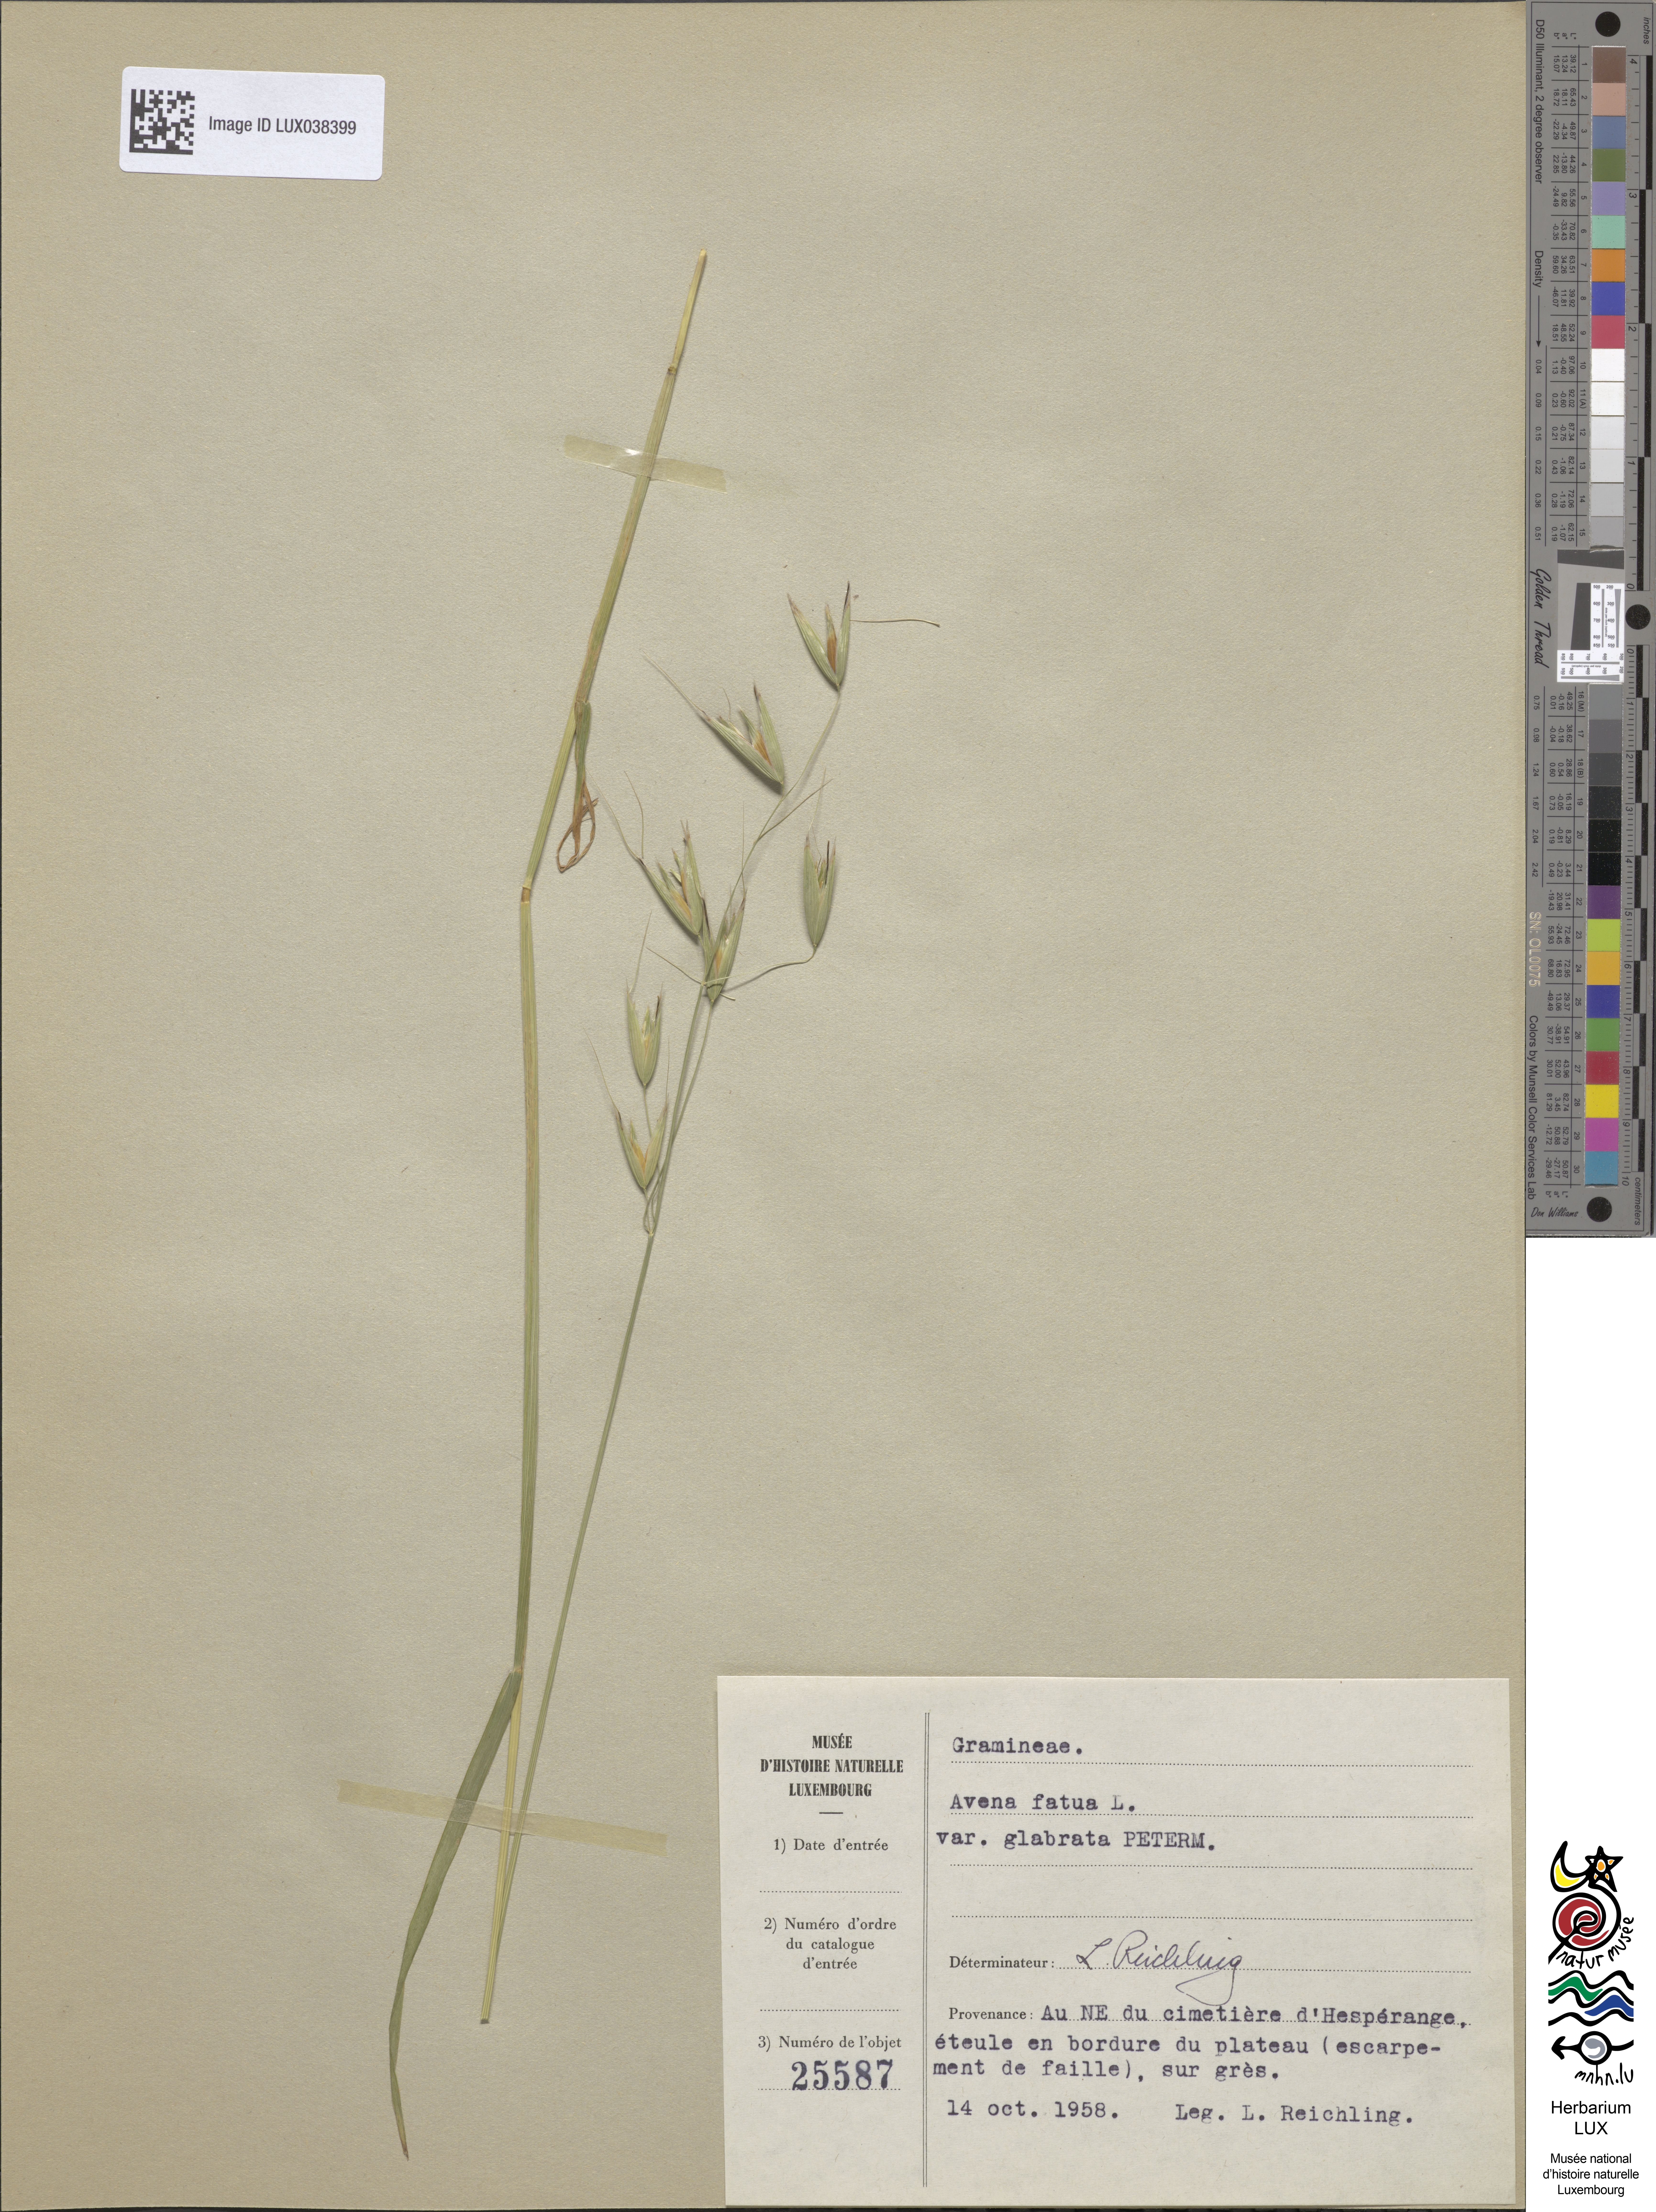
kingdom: Plantae
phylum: Tracheophyta
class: Liliopsida
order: Poales
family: Poaceae
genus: Avena
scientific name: Avena fatua
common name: Wild oat
